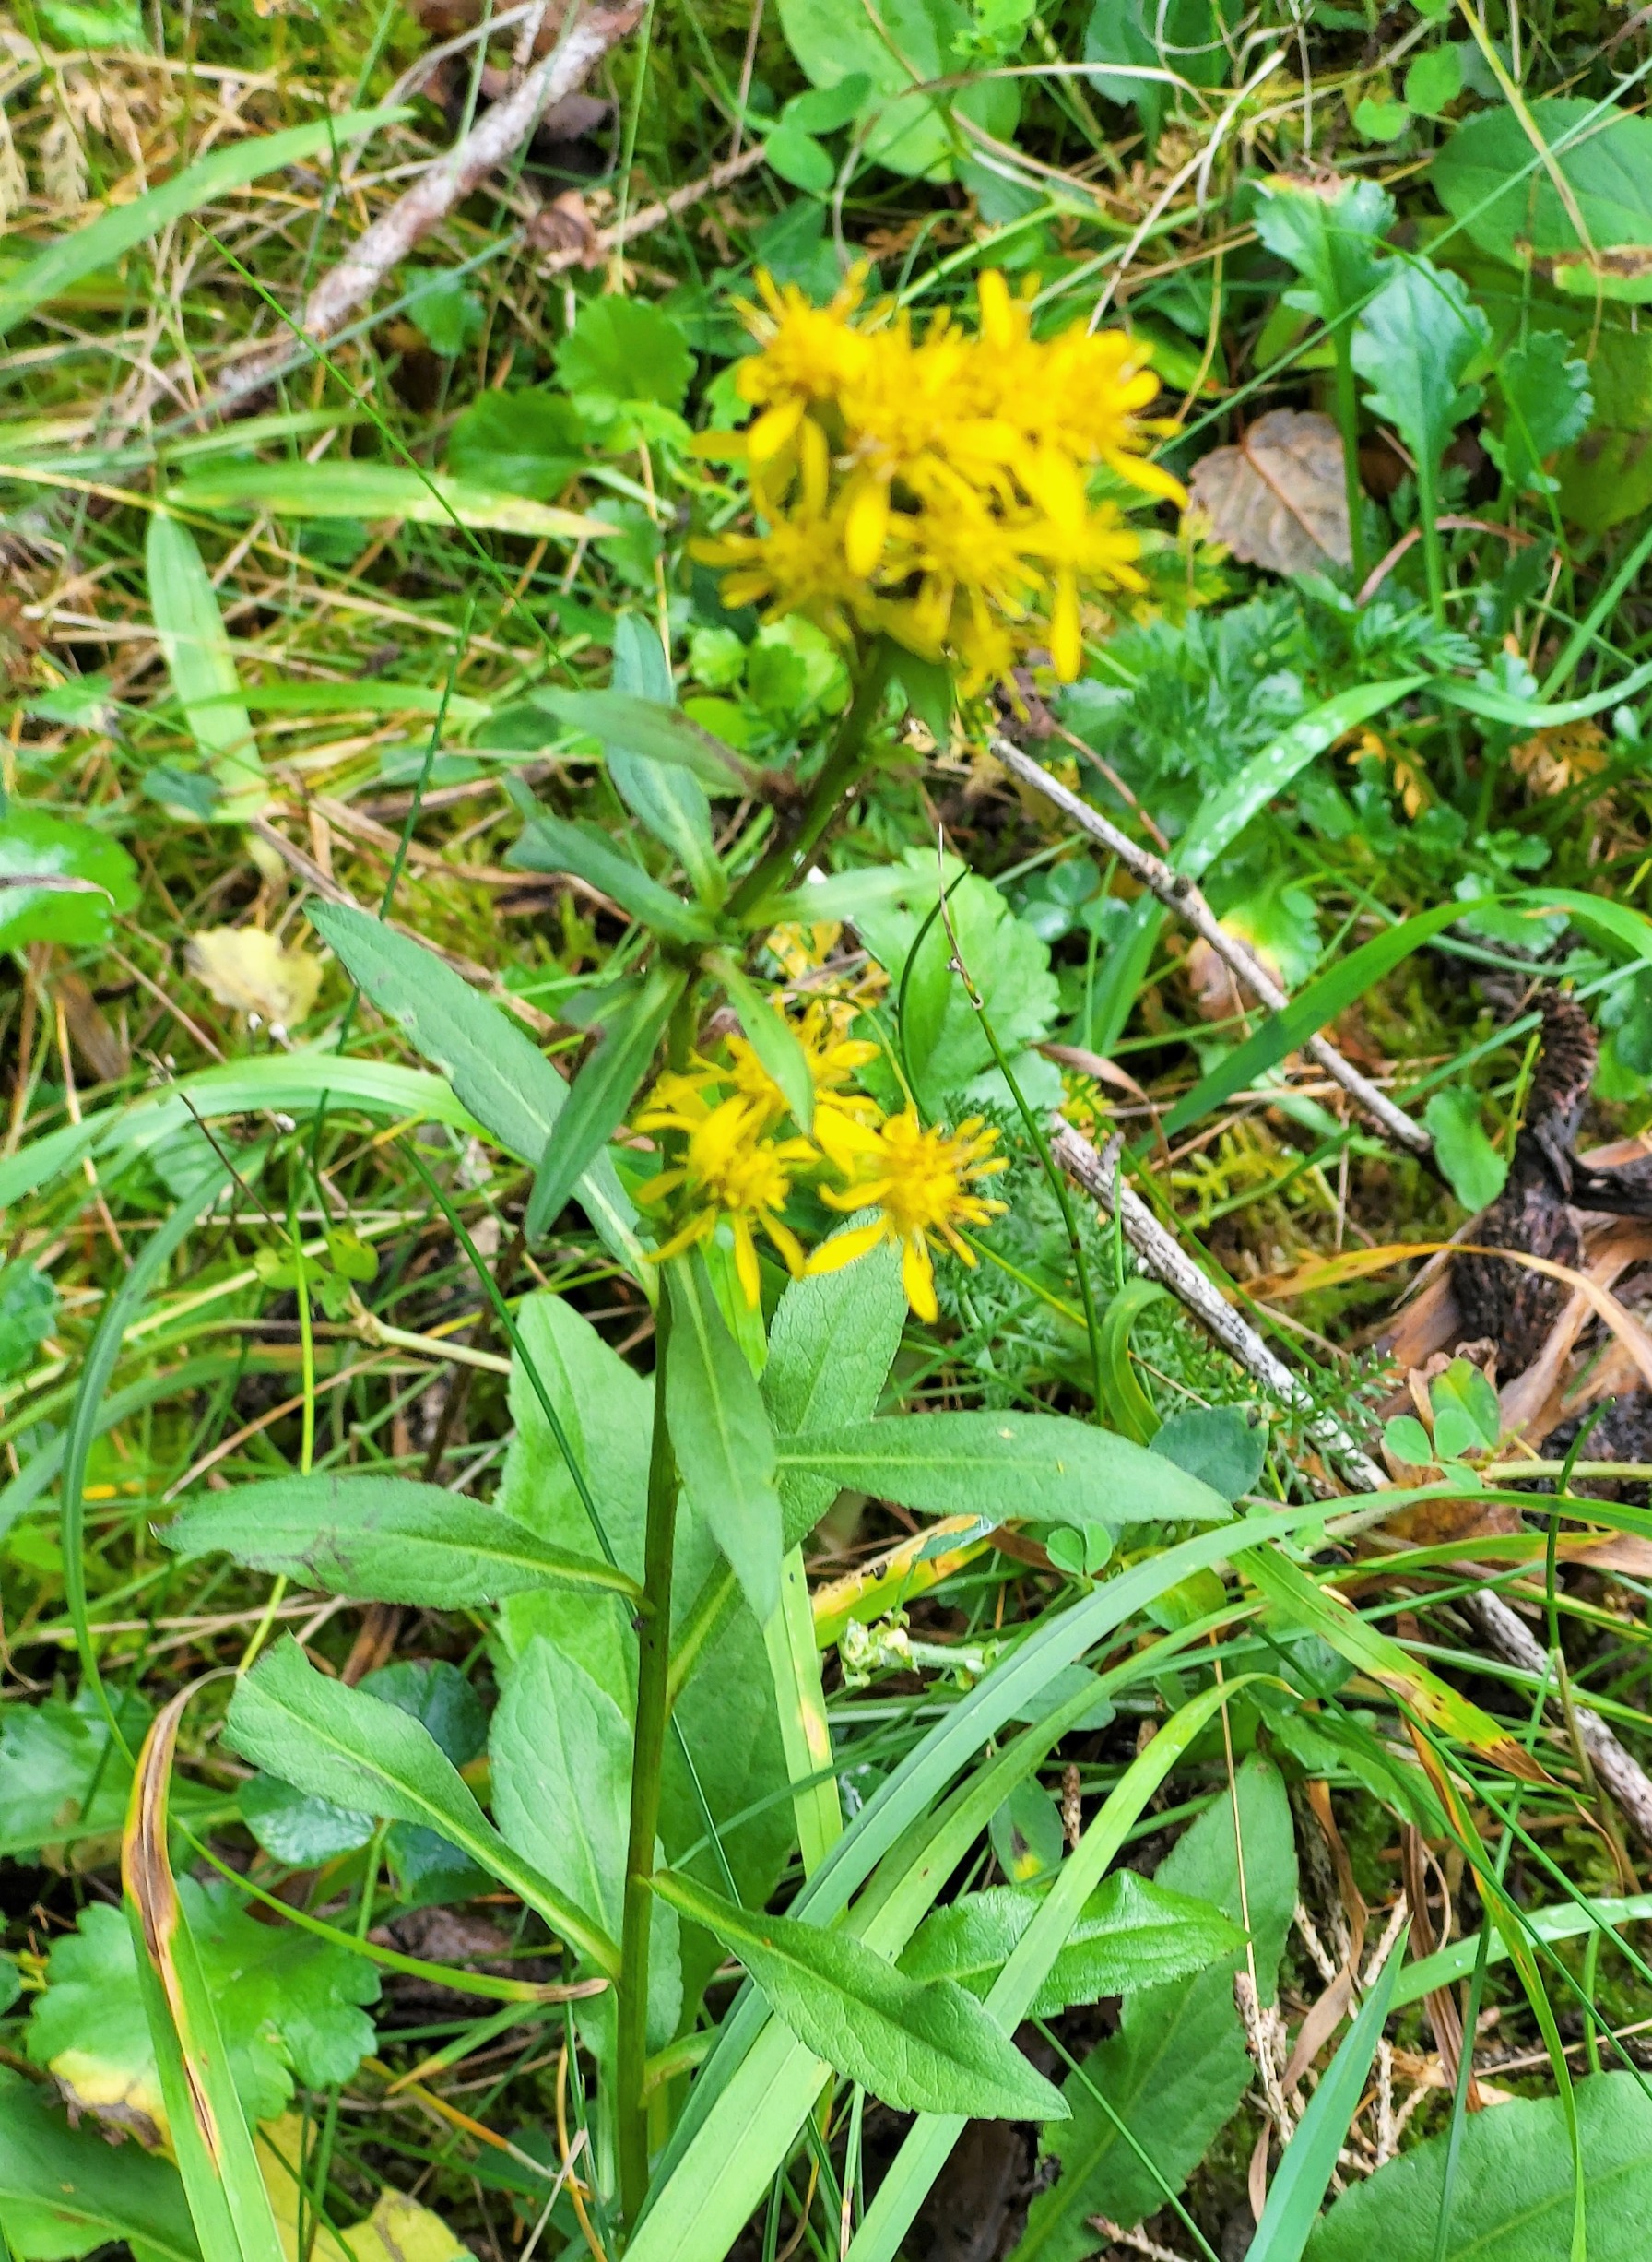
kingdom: Plantae
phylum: Tracheophyta
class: Magnoliopsida
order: Asterales
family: Asteraceae
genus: Solidago
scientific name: Solidago virgaurea
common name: Almindelig gyldenris
